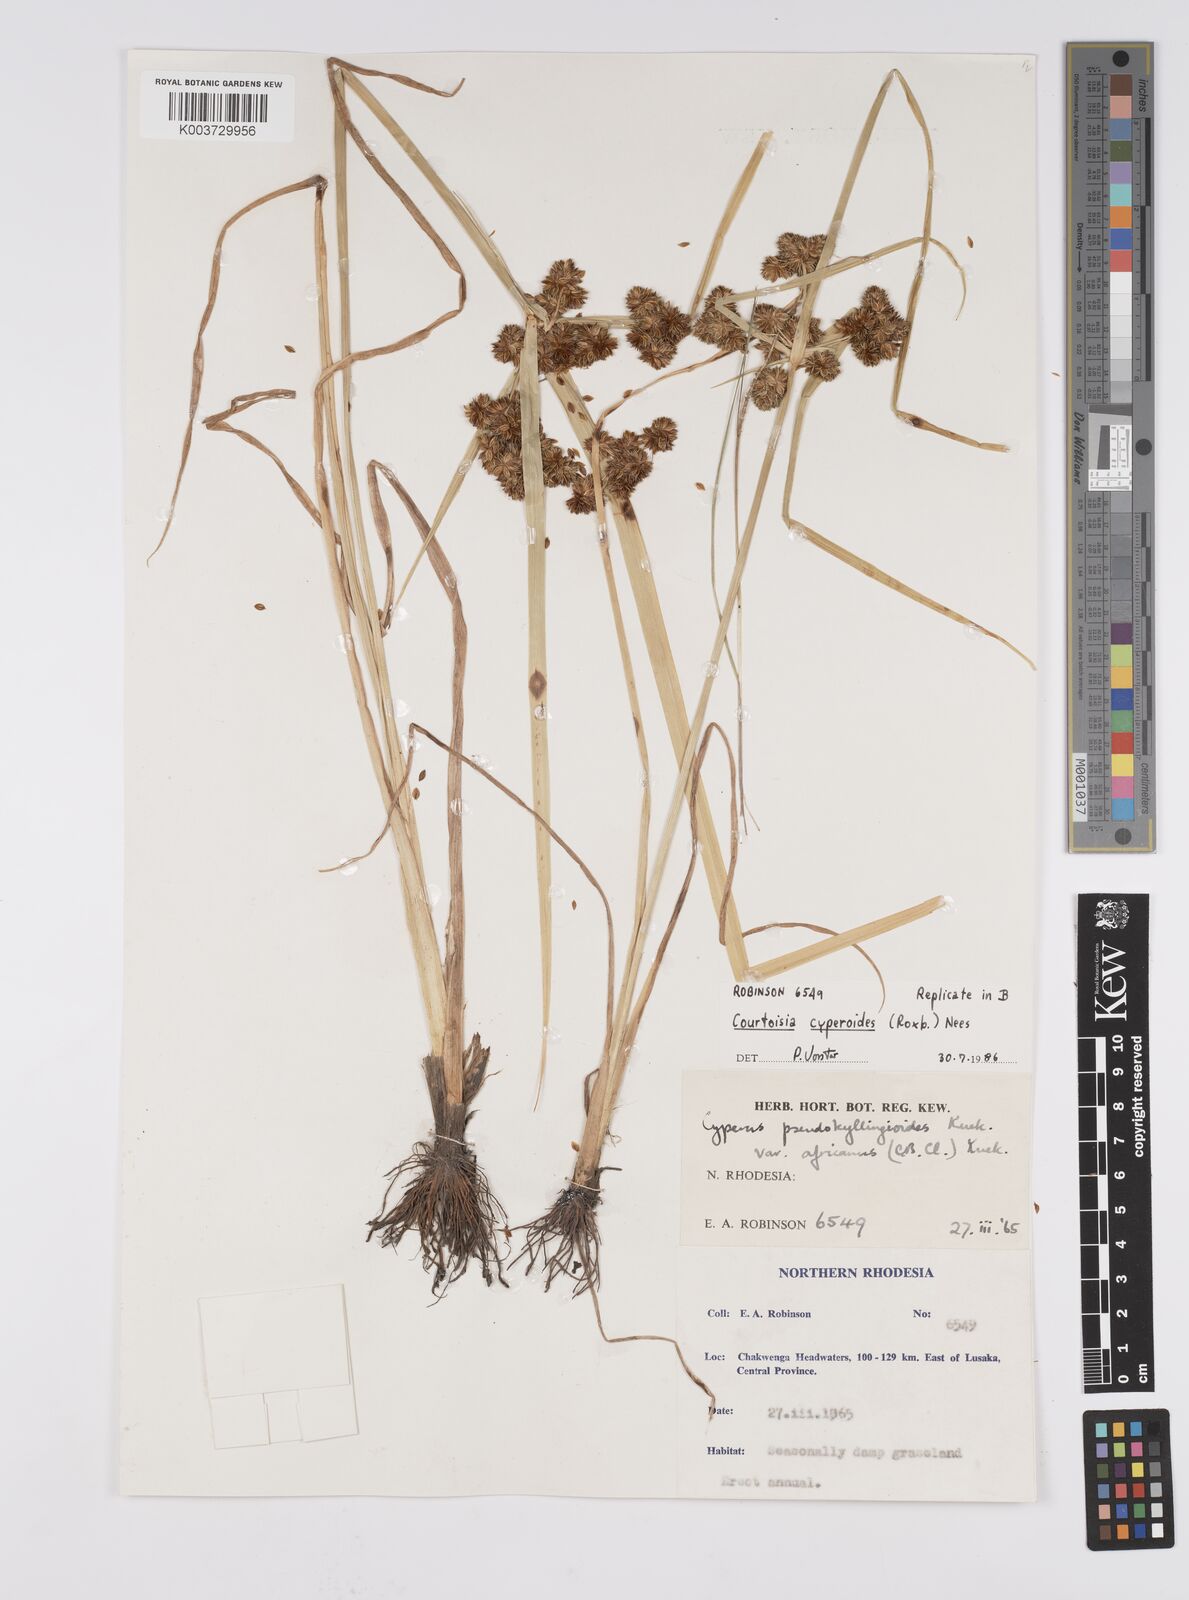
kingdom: Plantae
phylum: Tracheophyta
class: Liliopsida
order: Poales
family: Cyperaceae
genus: Cyperus
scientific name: Cyperus cyperoides
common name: Pacific island flat sedge
